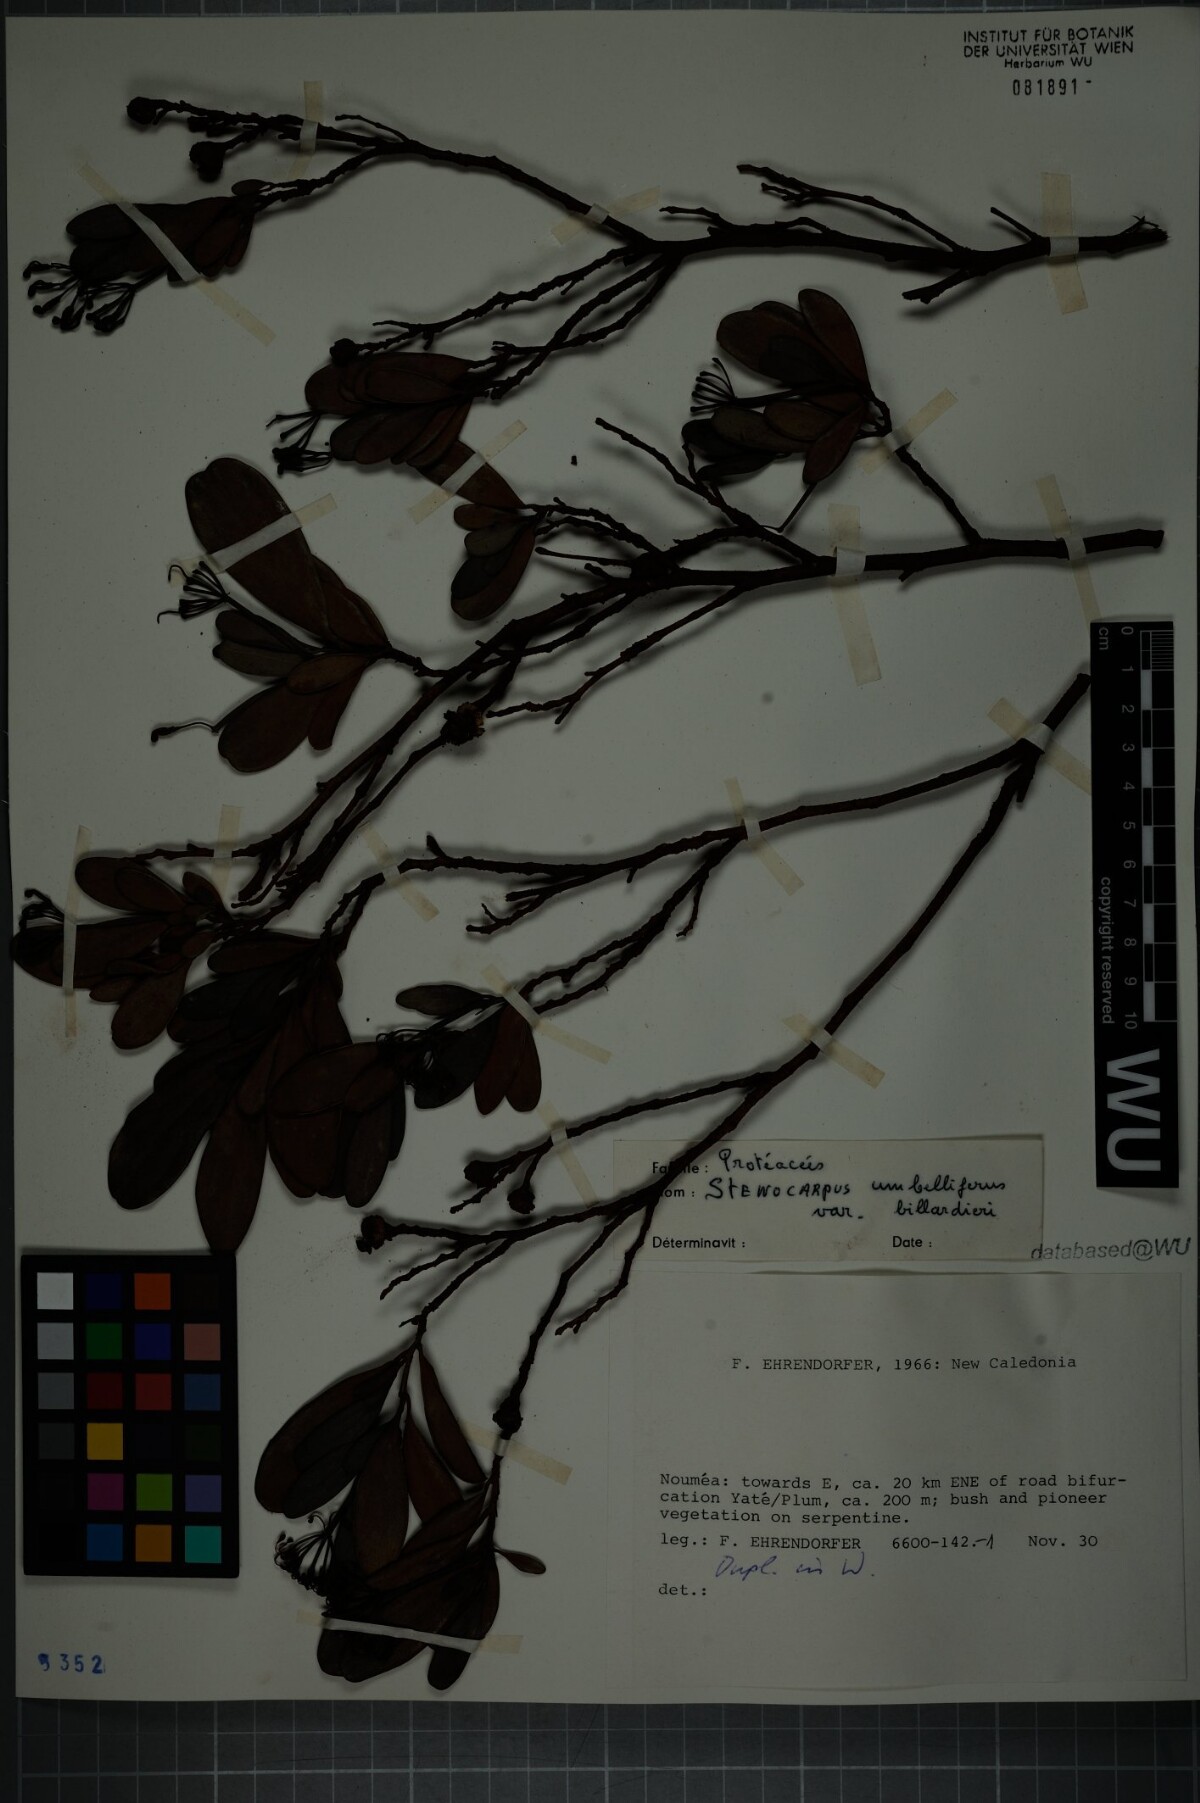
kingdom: Plantae
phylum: Tracheophyta
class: Magnoliopsida
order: Proteales
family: Proteaceae
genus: Stenocarpus
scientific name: Stenocarpus umbellifer
